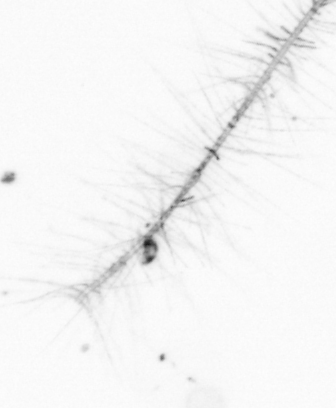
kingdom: Chromista
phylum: Ochrophyta
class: Bacillariophyceae
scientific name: Bacillariophyceae
